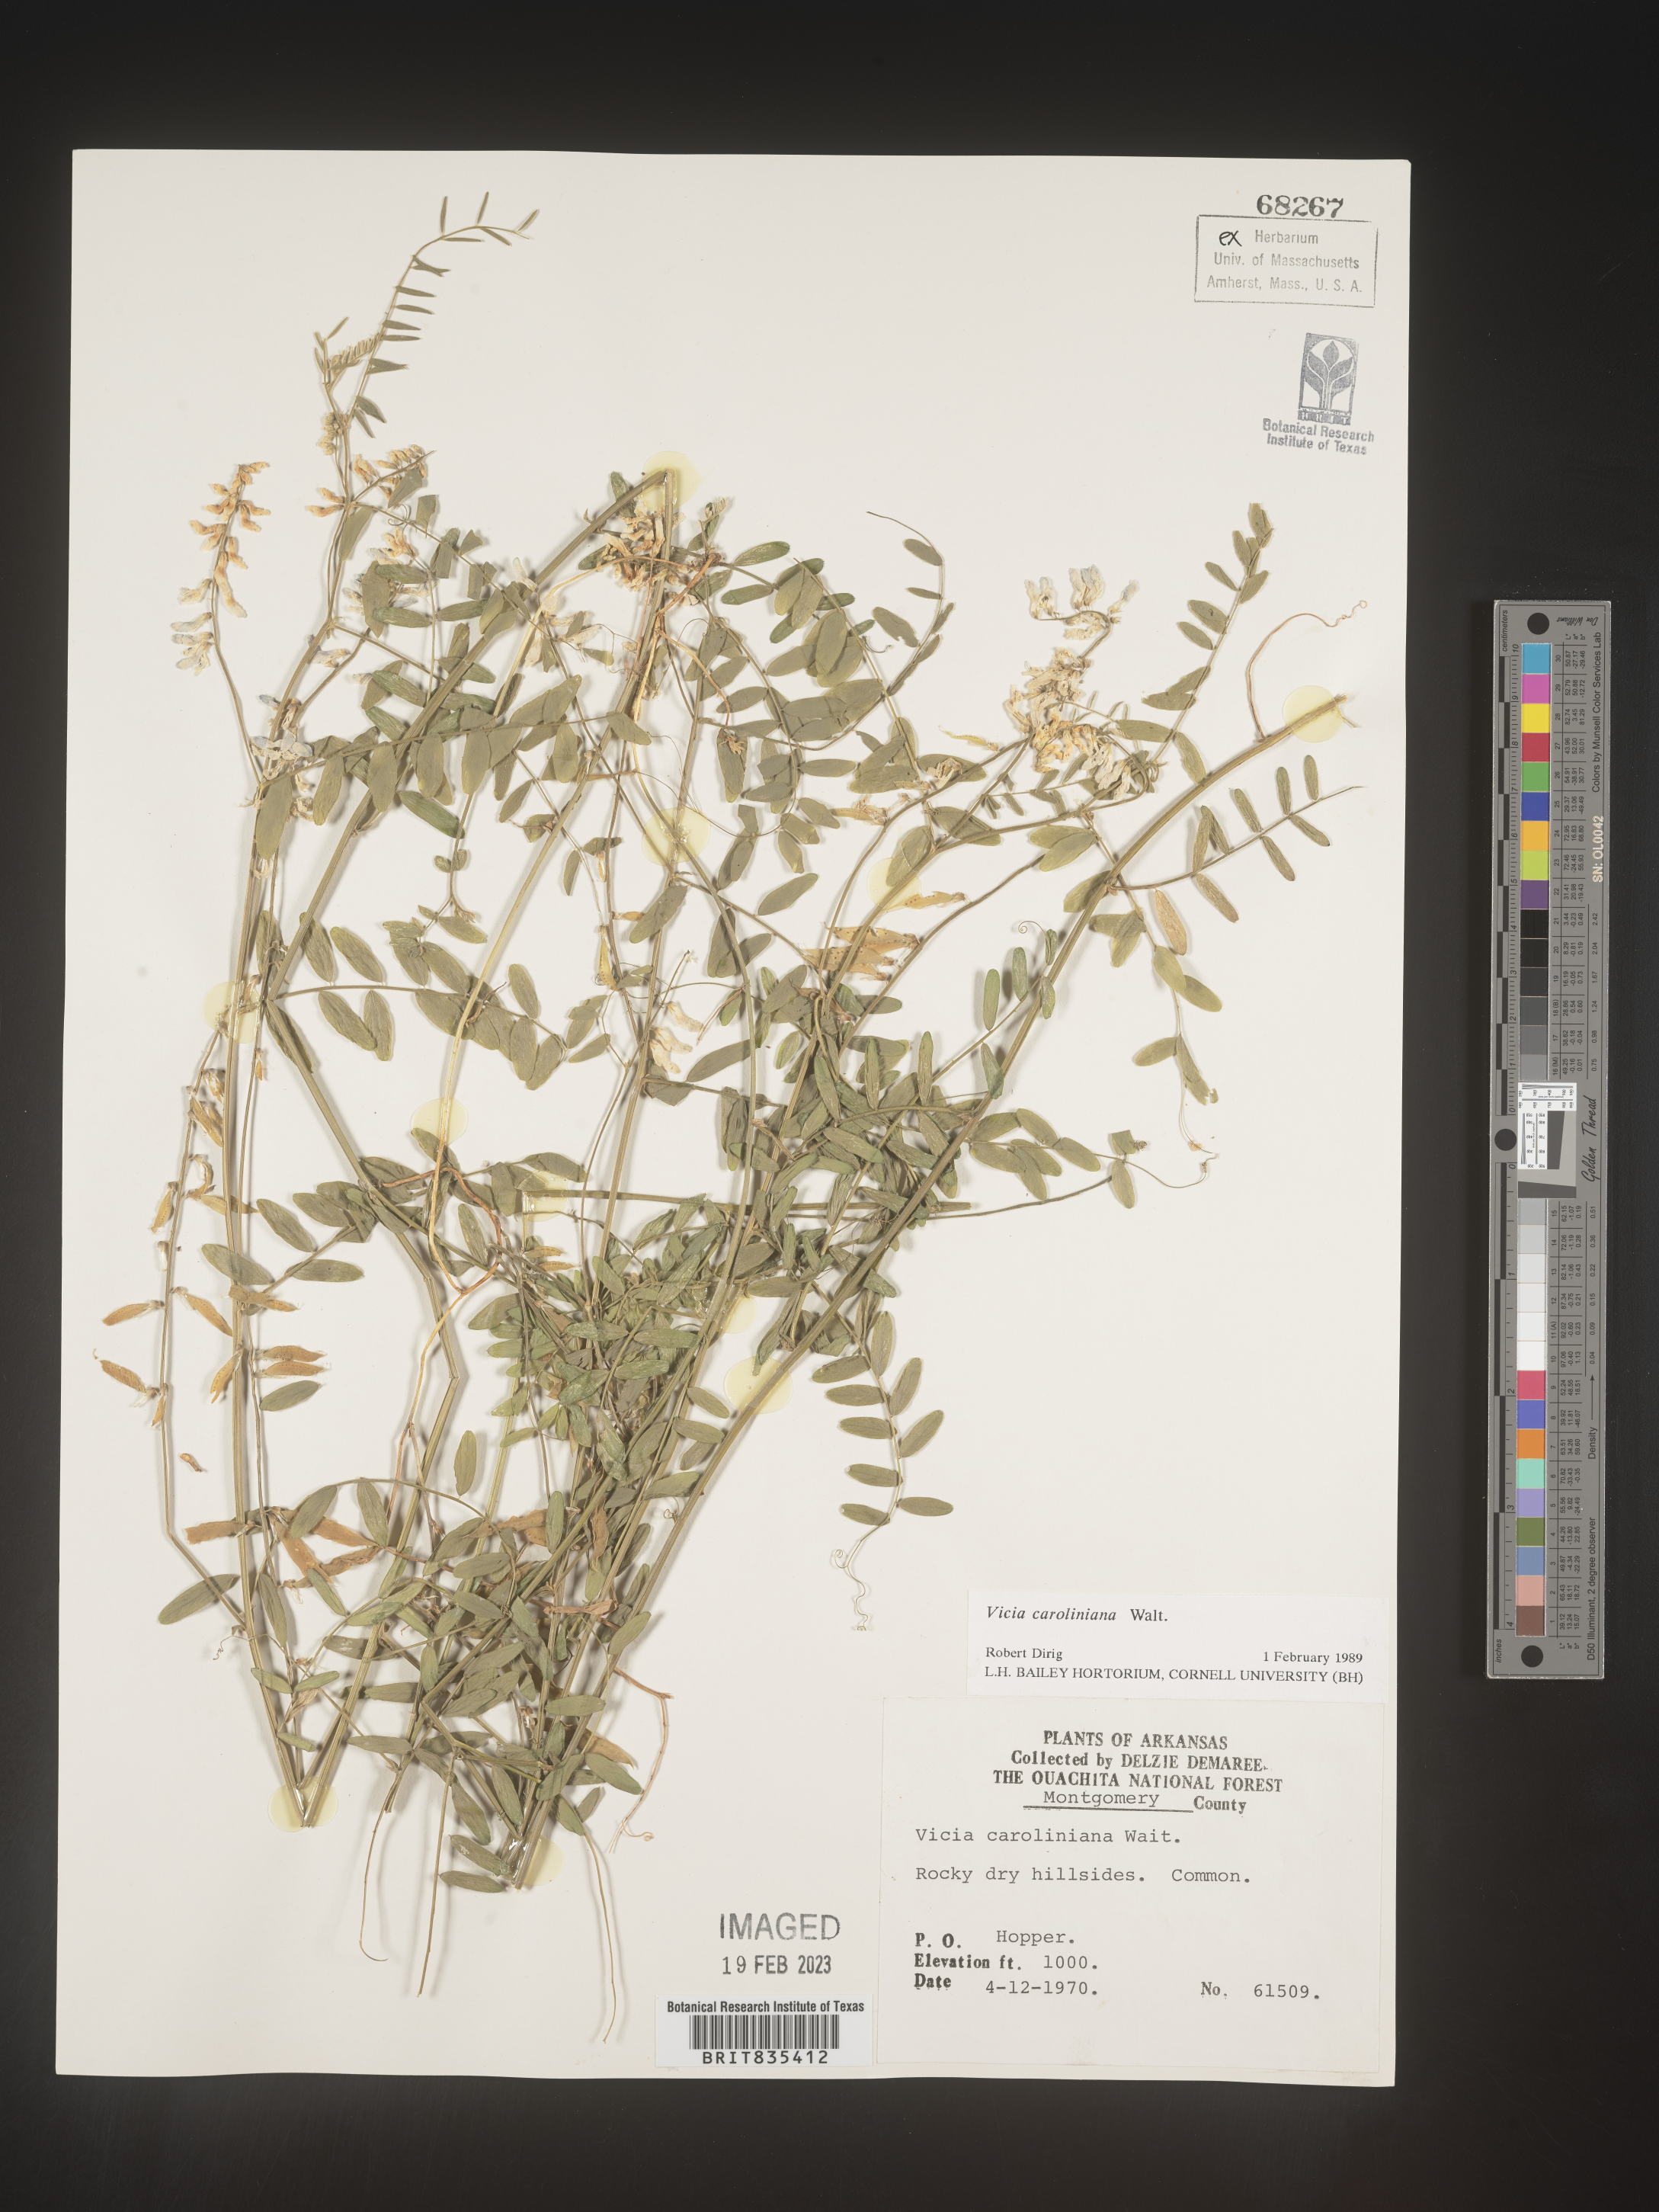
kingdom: Plantae
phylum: Tracheophyta
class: Magnoliopsida
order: Fabales
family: Fabaceae
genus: Vicia
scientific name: Vicia caroliniana
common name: Carolina vetch
